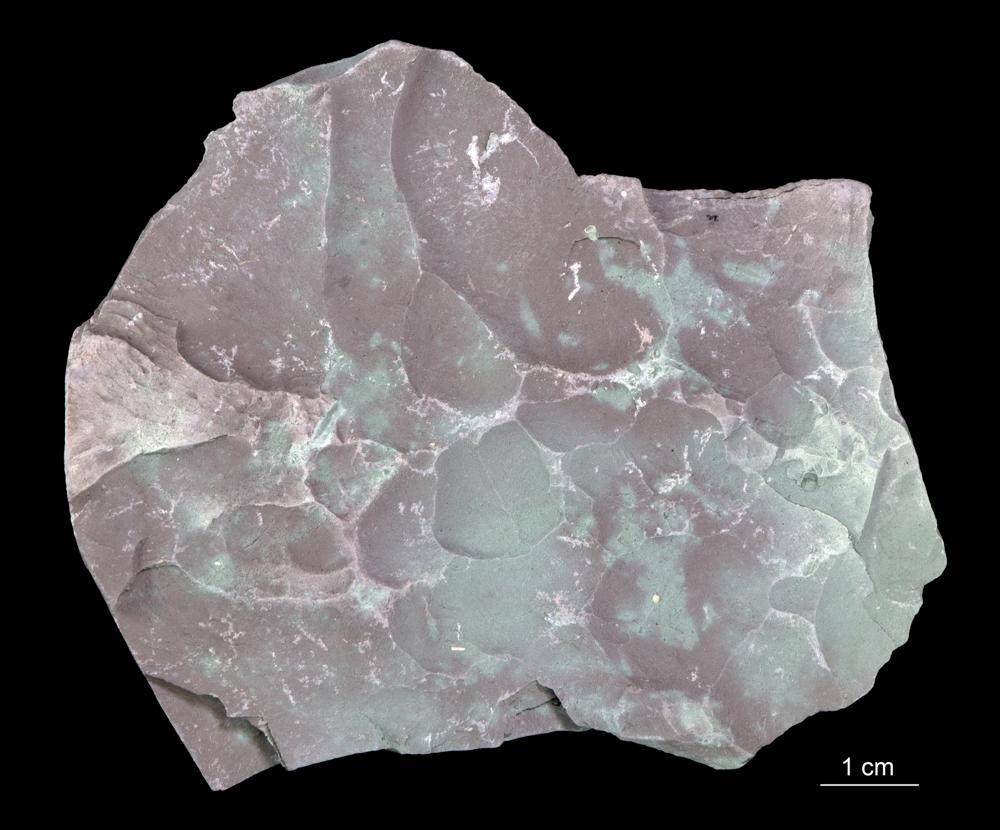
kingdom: Chromista
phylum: Foraminifera
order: Astrorhizida
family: Hyperamminidae
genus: Platysolenites
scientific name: Platysolenites antiquissimus
